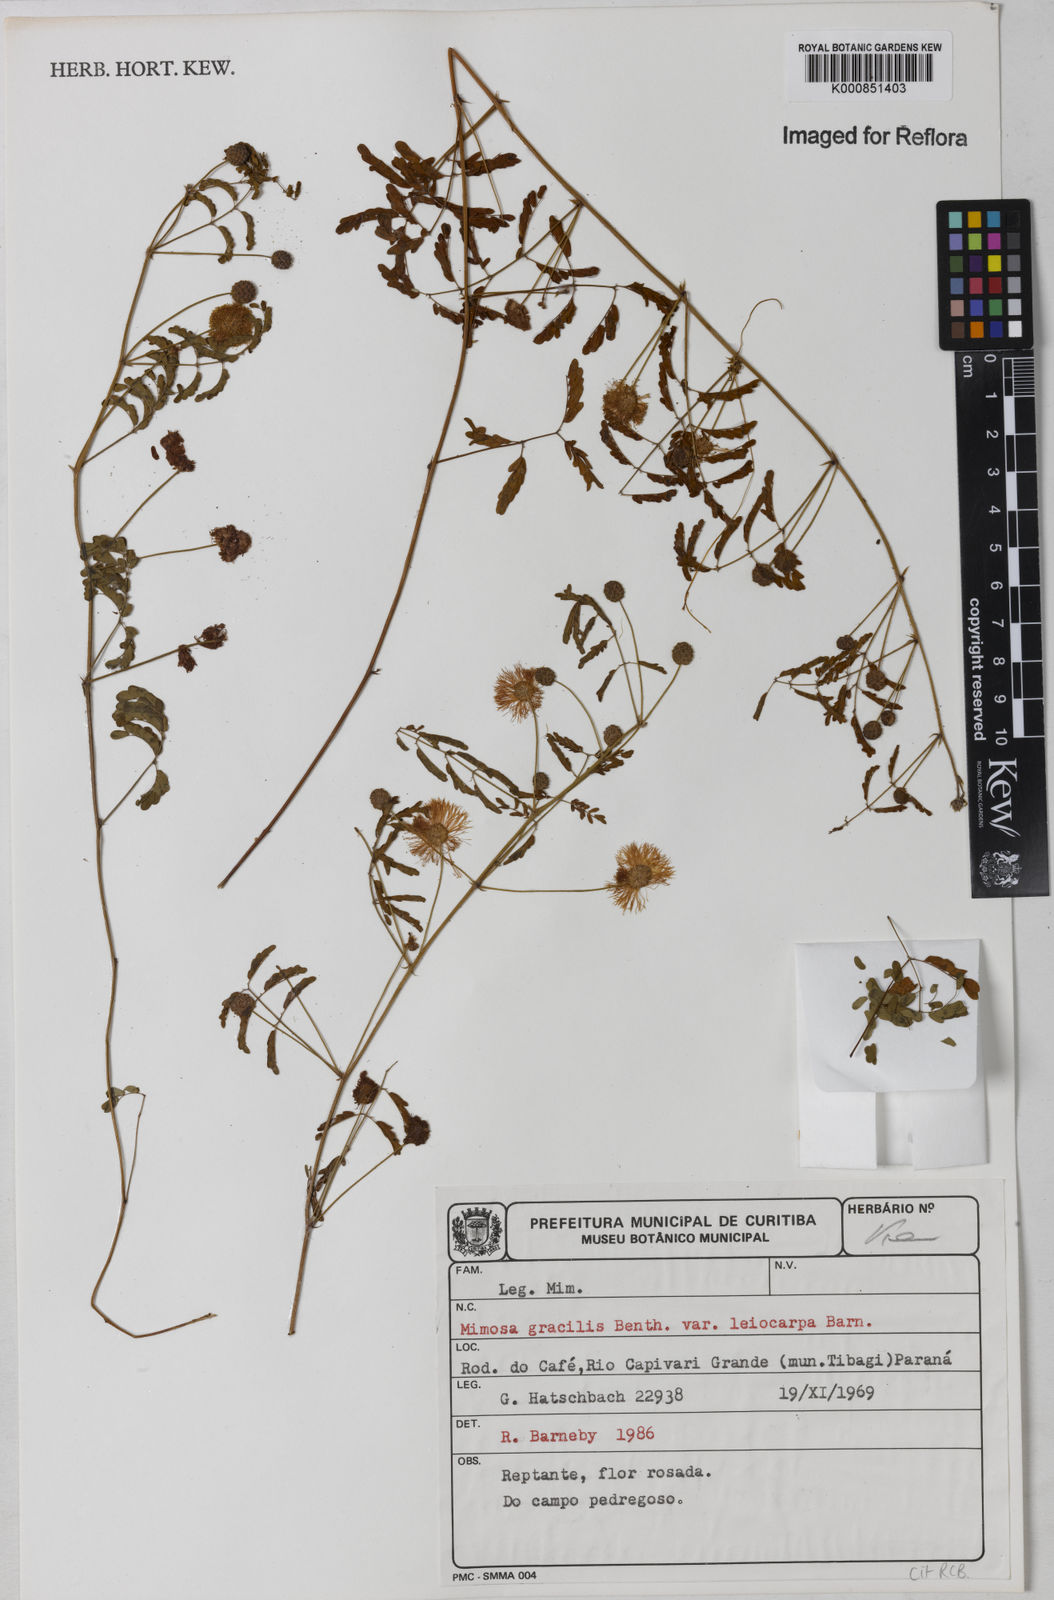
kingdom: Plantae
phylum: Tracheophyta
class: Magnoliopsida
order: Fabales
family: Fabaceae
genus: Mimosa
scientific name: Mimosa gracilis
